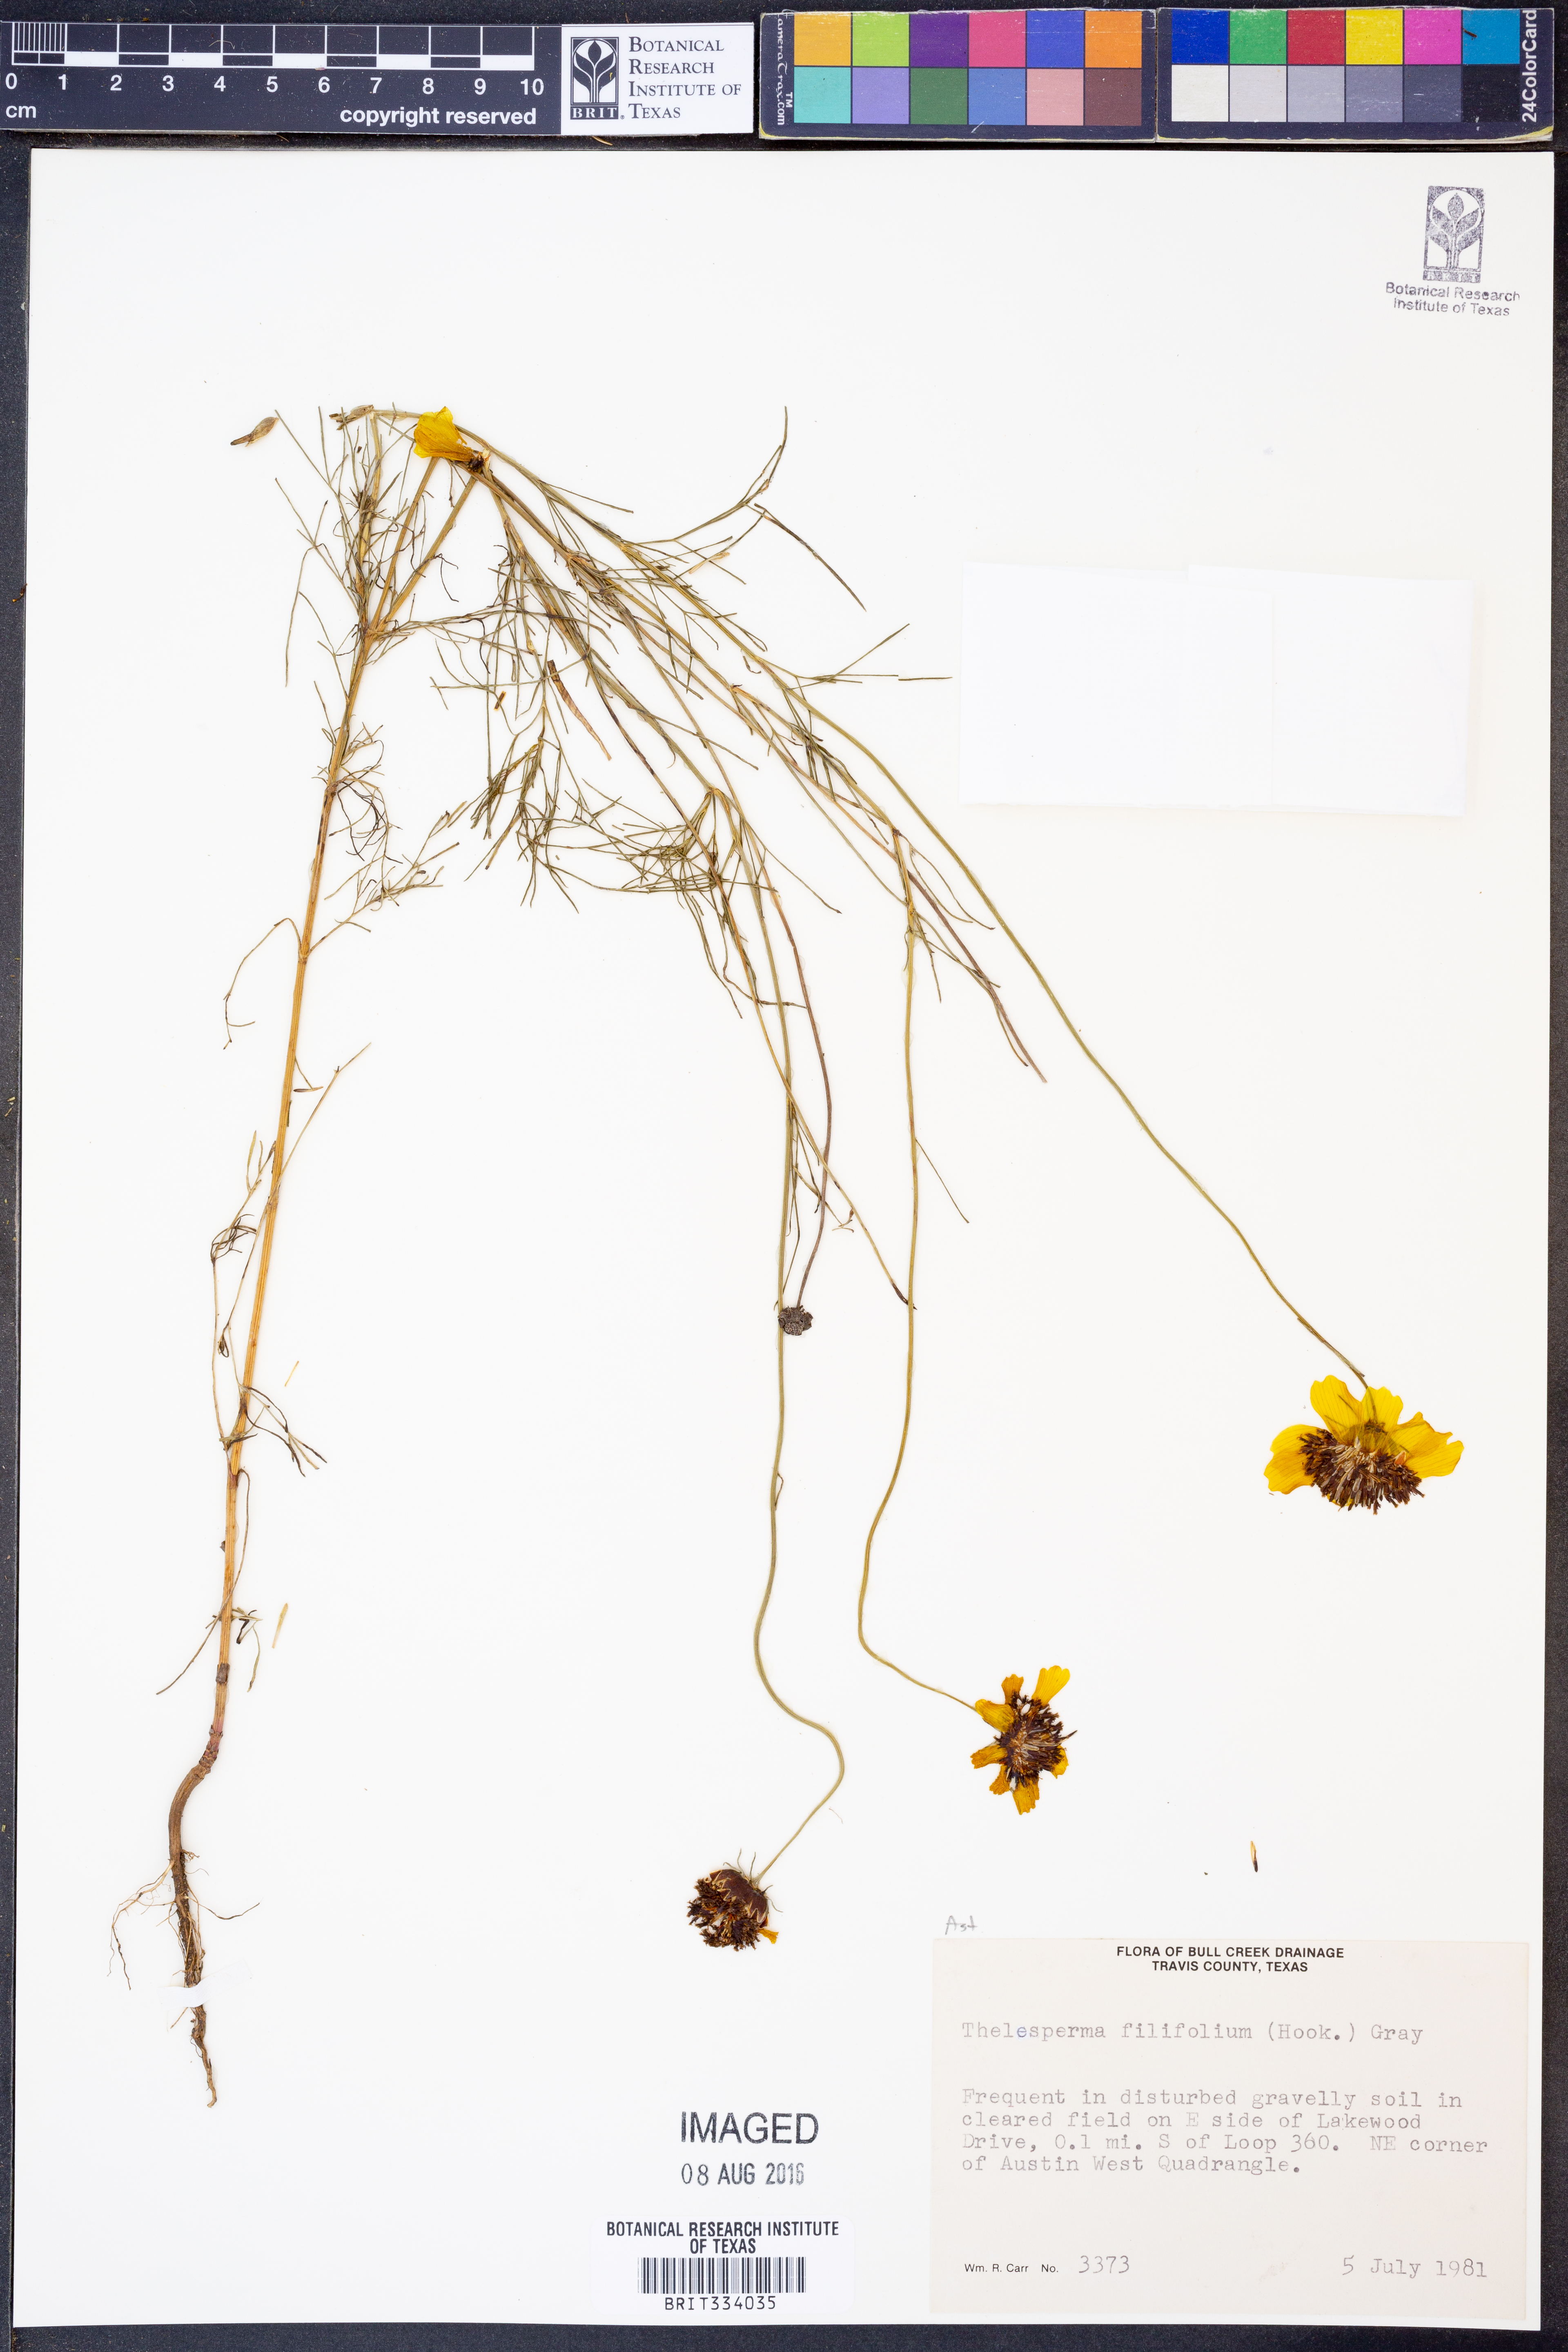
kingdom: Plantae
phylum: Tracheophyta
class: Magnoliopsida
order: Asterales
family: Asteraceae
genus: Thelesperma
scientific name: Thelesperma filifolium
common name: Stiff greenthread
